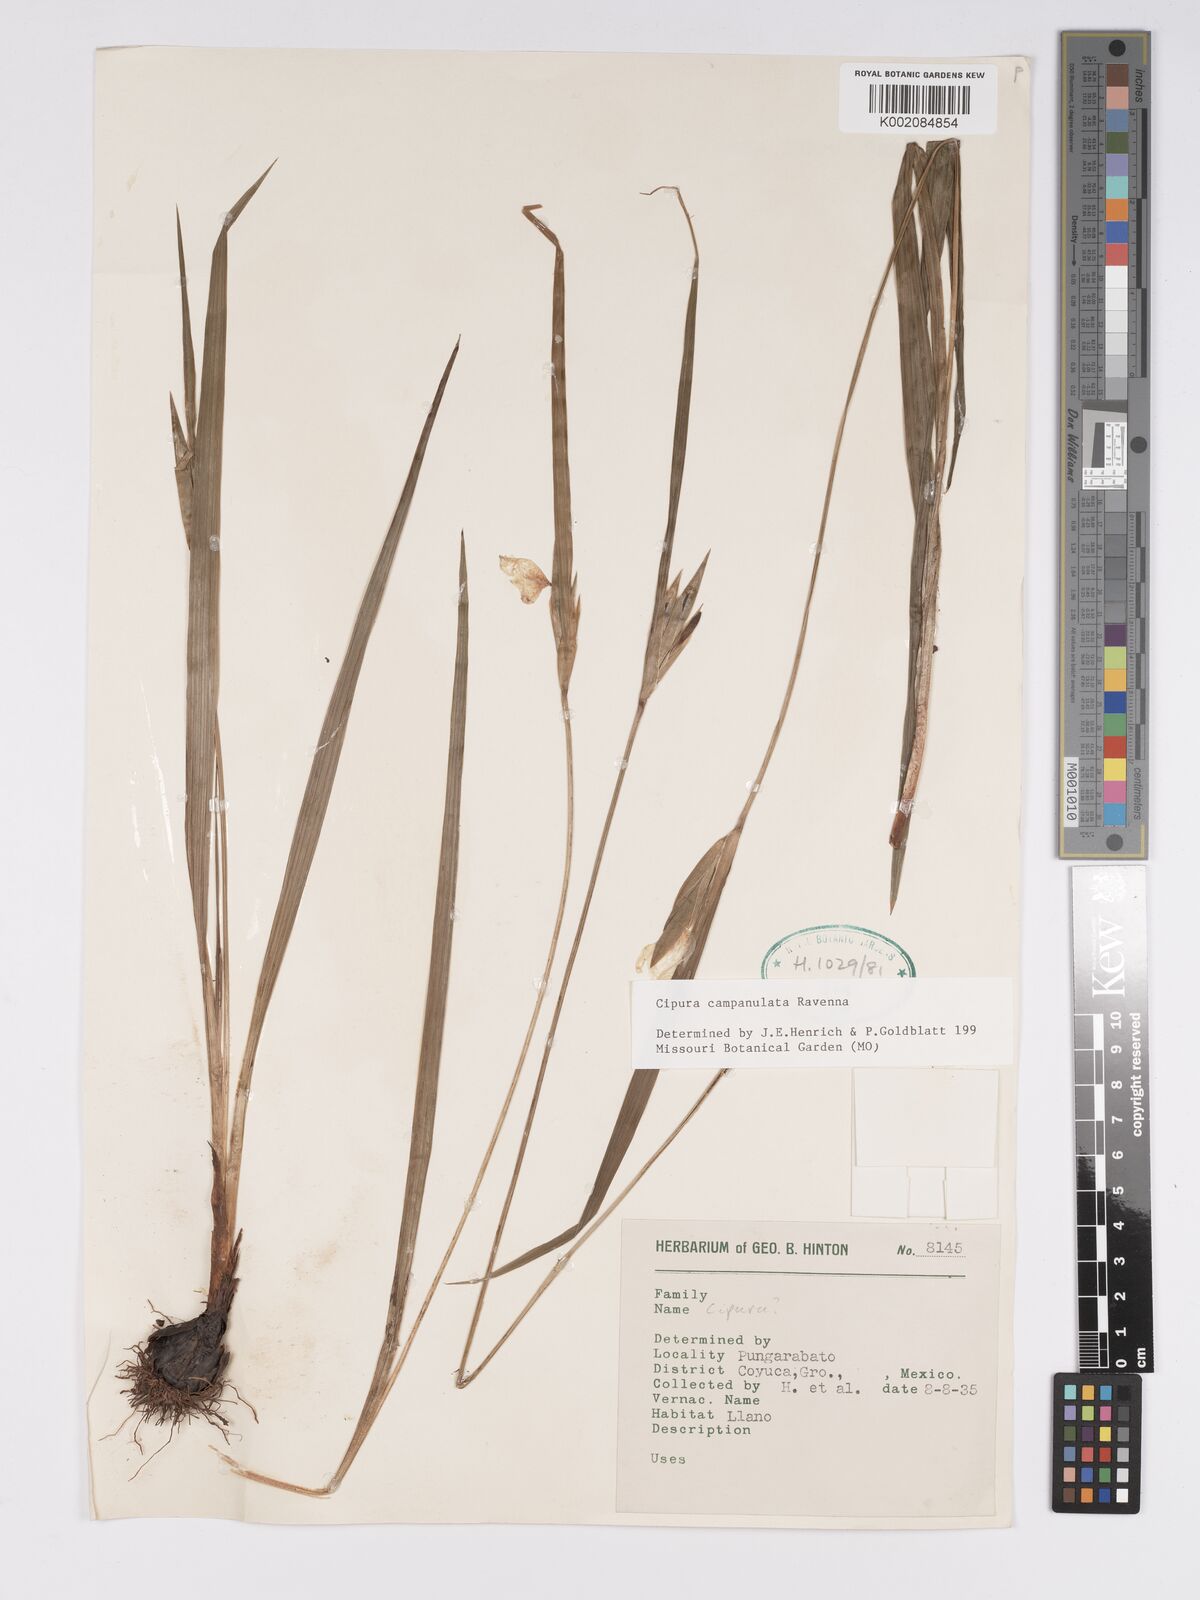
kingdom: Plantae
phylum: Tracheophyta
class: Liliopsida
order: Asparagales
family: Iridaceae
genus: Cipura
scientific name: Cipura campanulata
